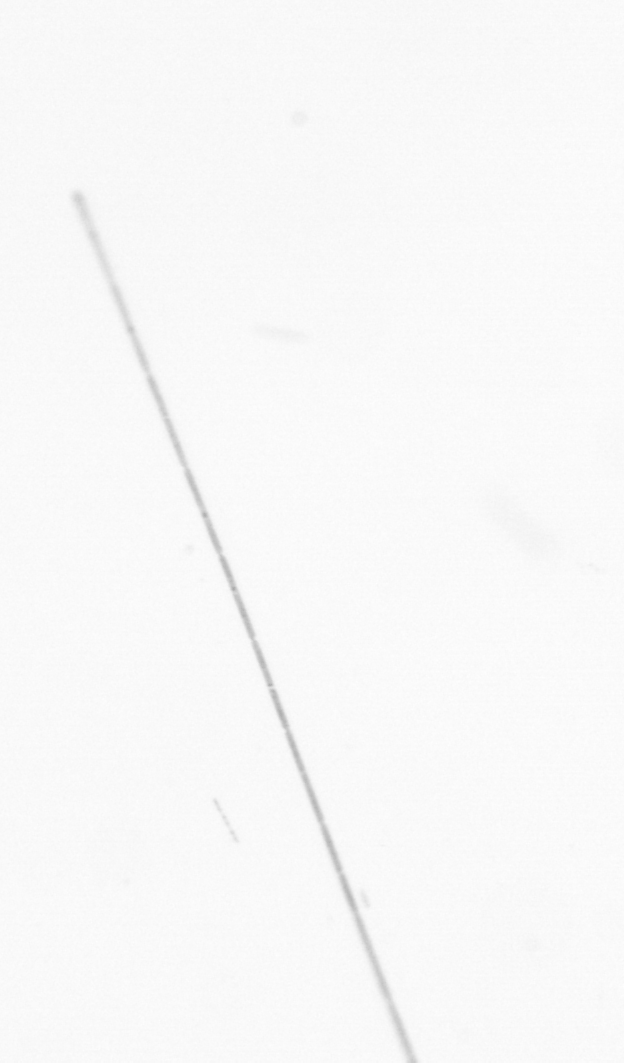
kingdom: Chromista
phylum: Ochrophyta
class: Bacillariophyceae
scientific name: Bacillariophyceae
